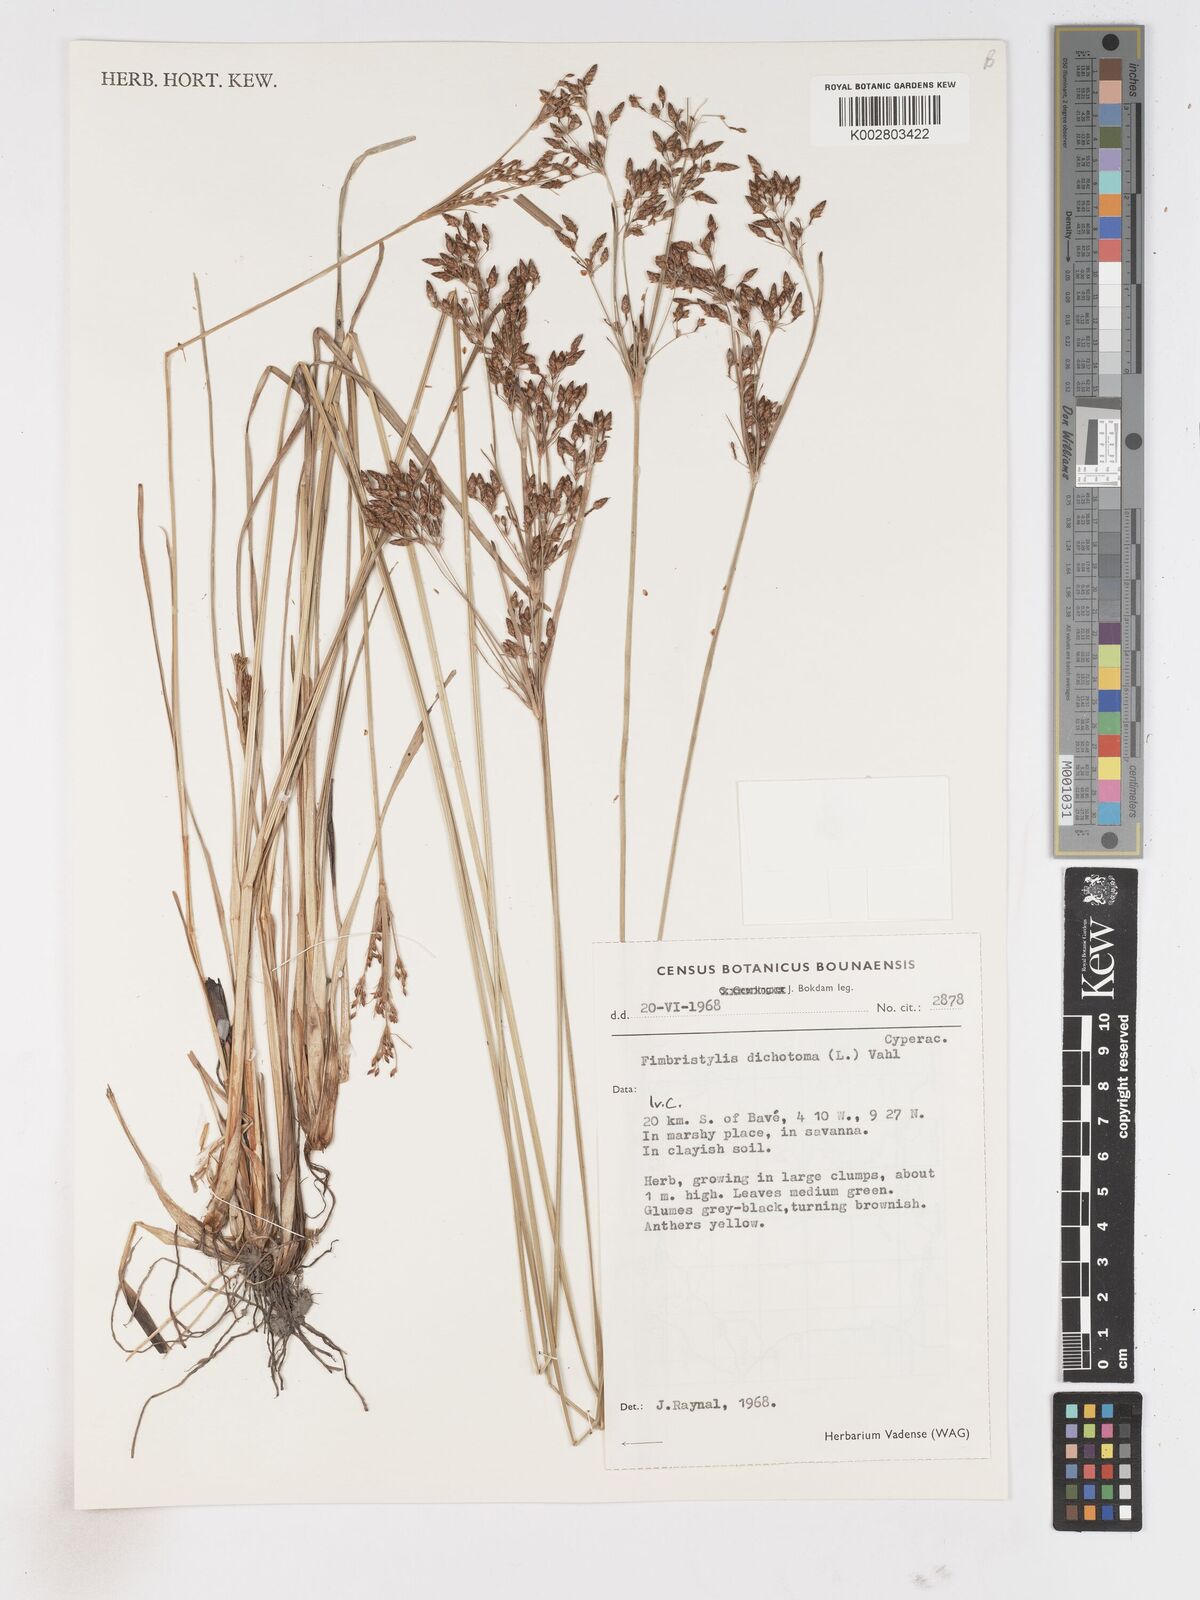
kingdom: Plantae
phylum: Tracheophyta
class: Liliopsida
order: Poales
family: Cyperaceae
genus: Fimbristylis
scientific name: Fimbristylis dichotoma
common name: Forked fimbry
